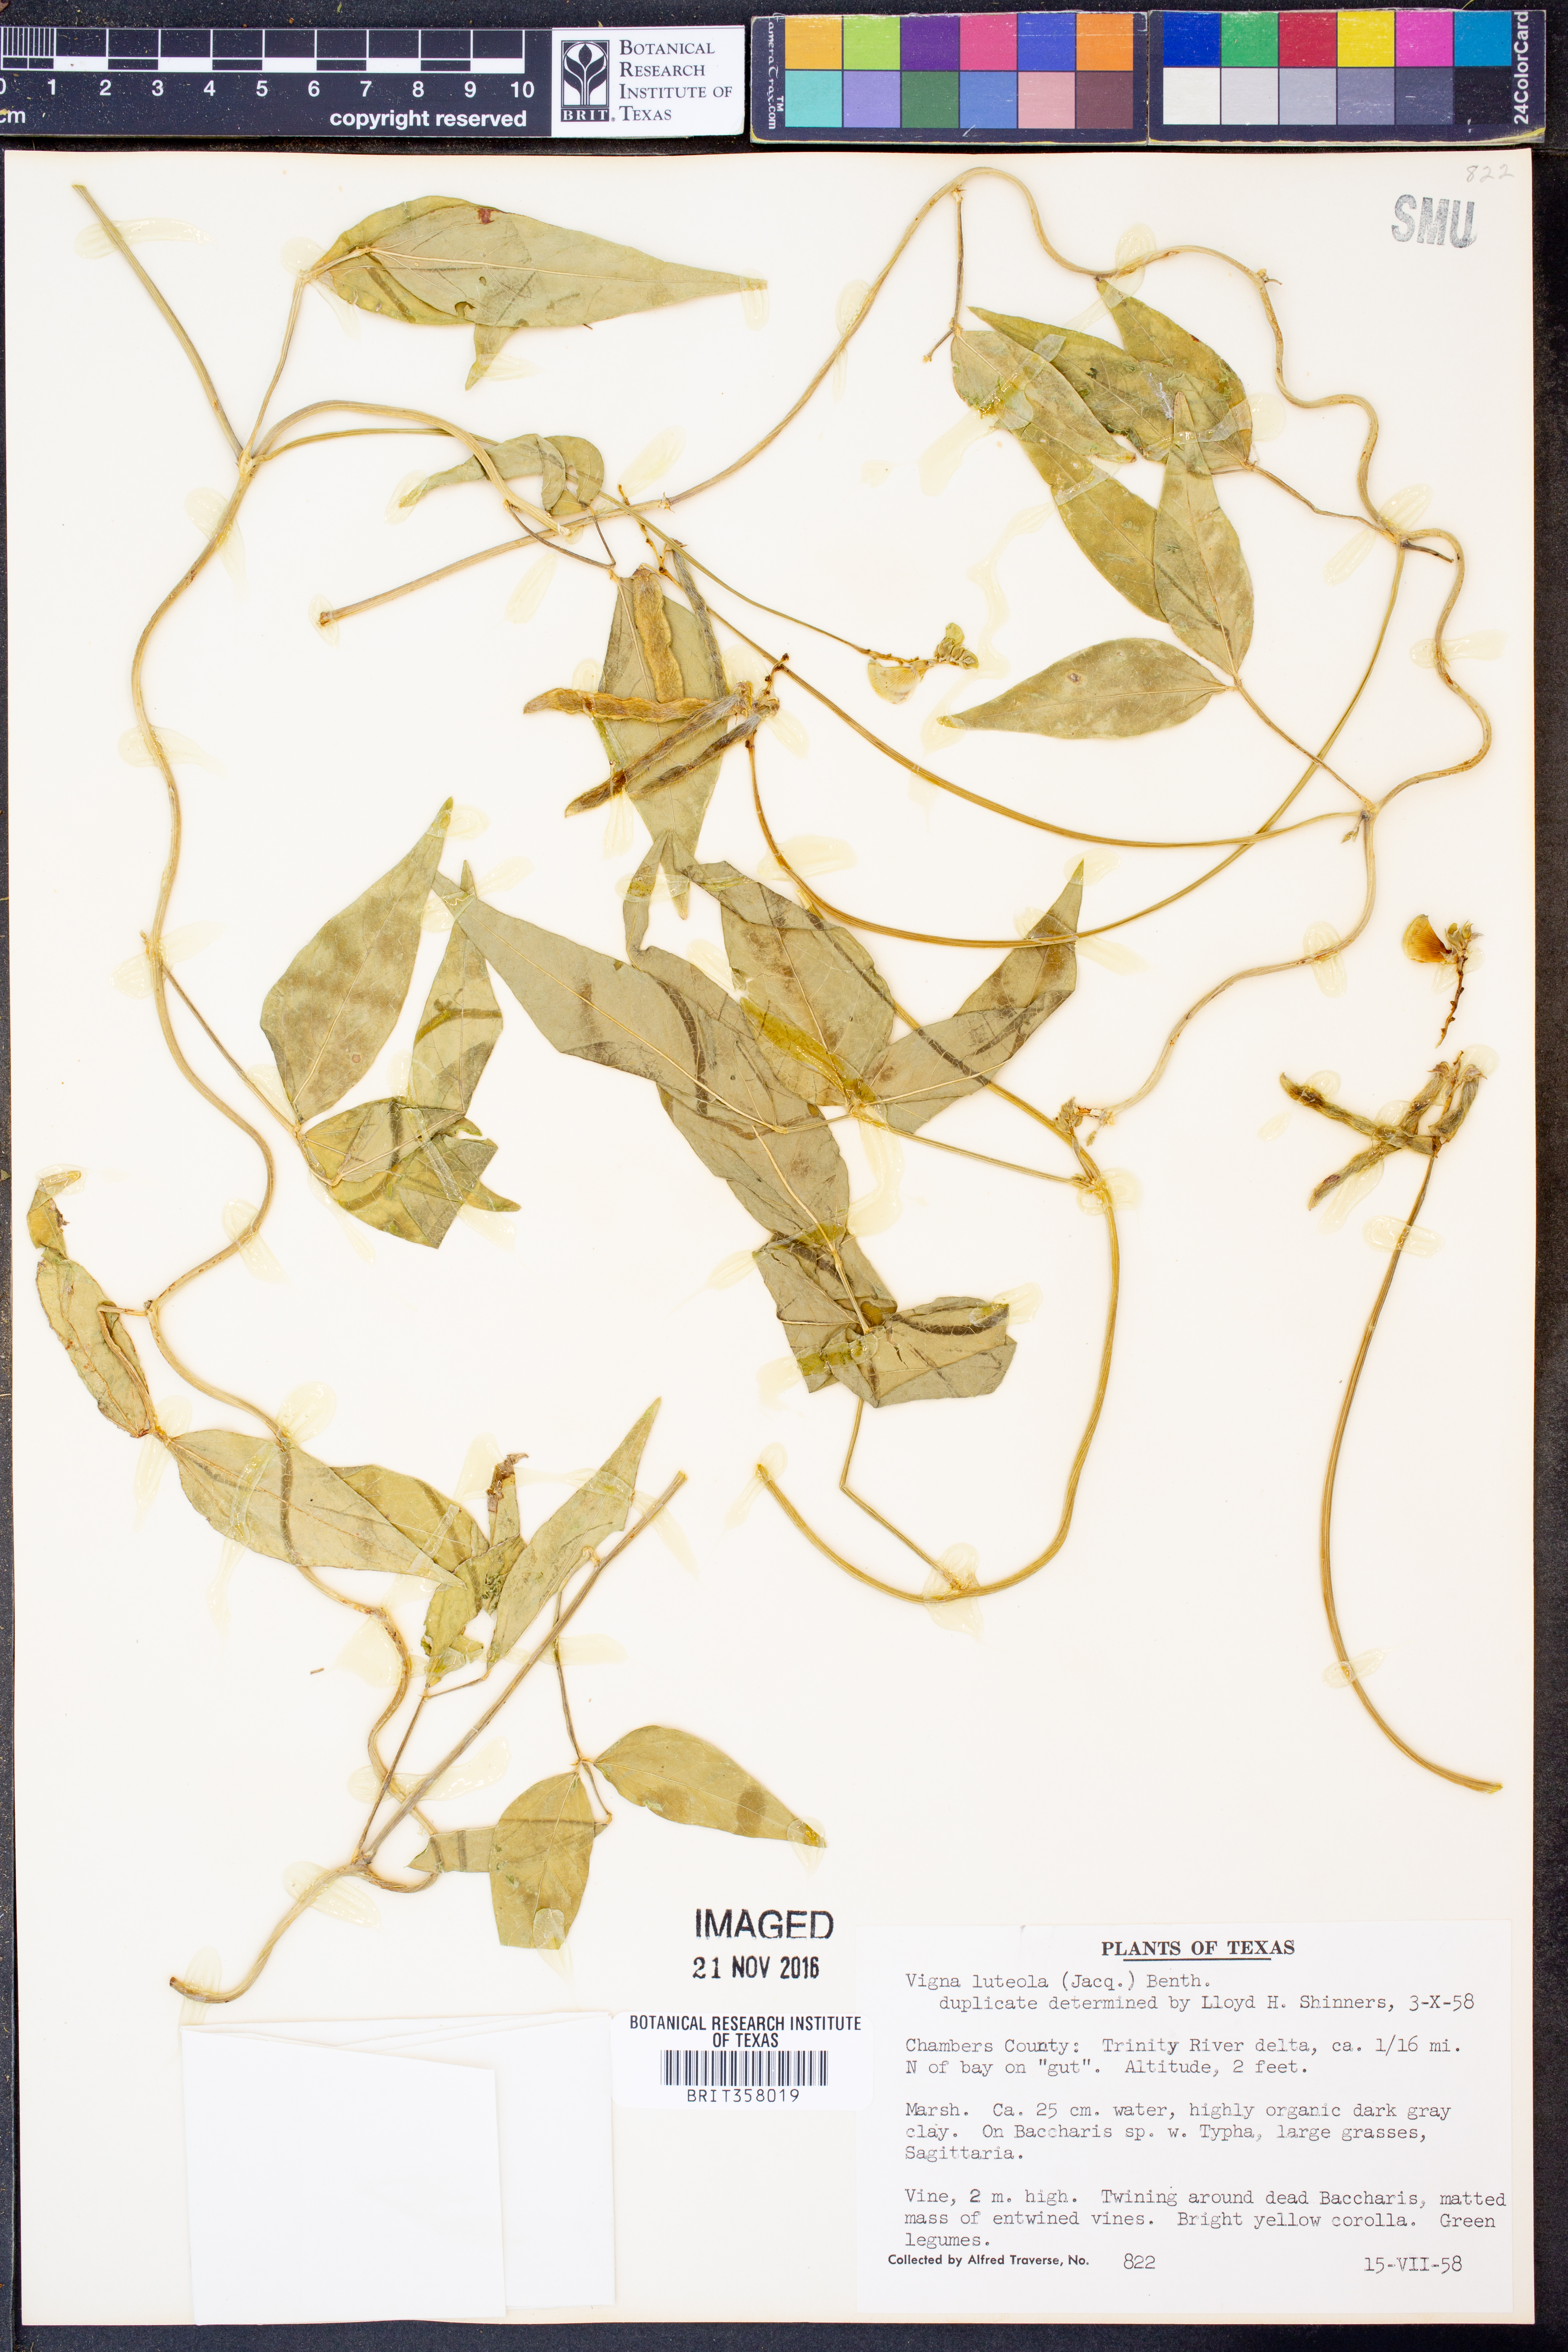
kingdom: Plantae
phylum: Tracheophyta
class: Magnoliopsida
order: Fabales
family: Fabaceae
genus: Vigna
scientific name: Vigna luteola
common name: Hairypod cowpea
